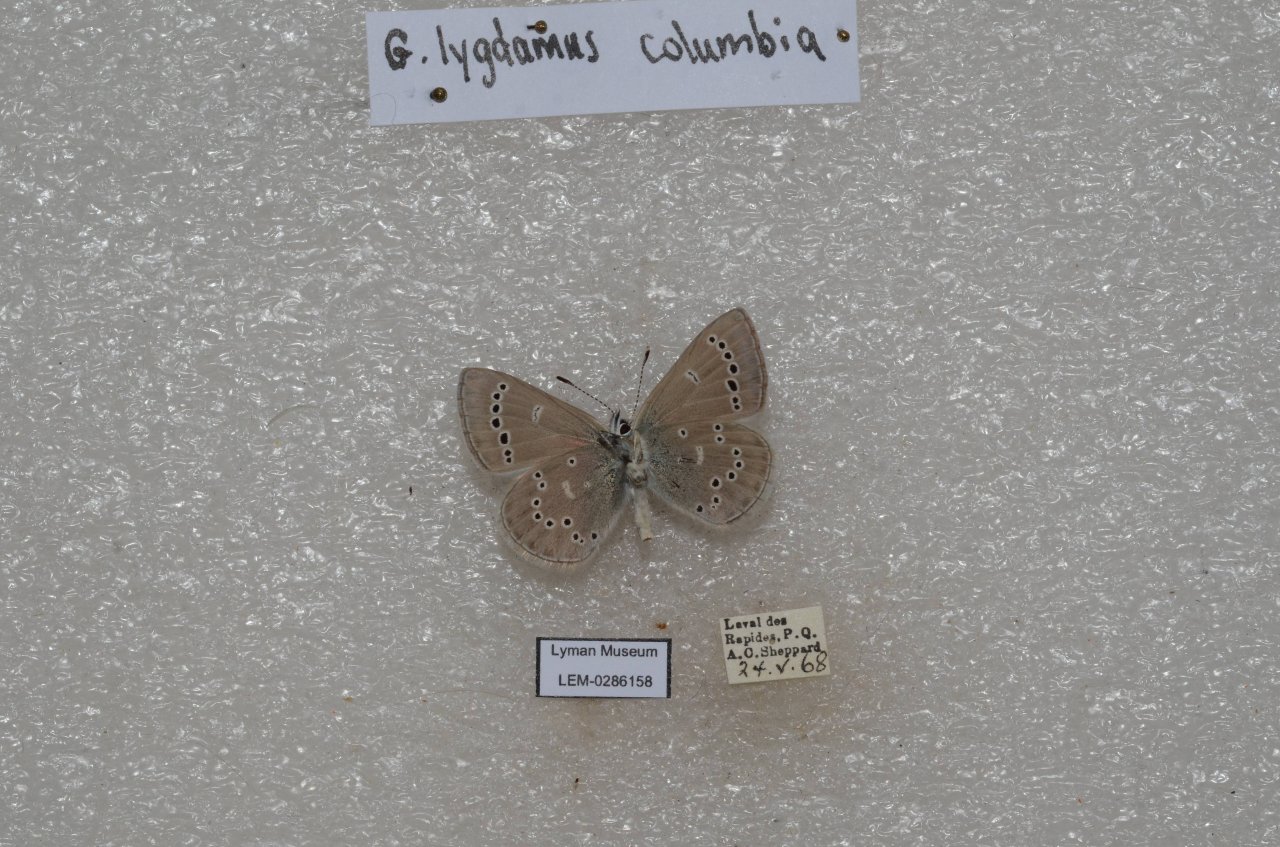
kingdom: Animalia
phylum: Arthropoda
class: Insecta
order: Lepidoptera
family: Lycaenidae
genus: Glaucopsyche
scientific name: Glaucopsyche lygdamus
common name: Silvery Blue
